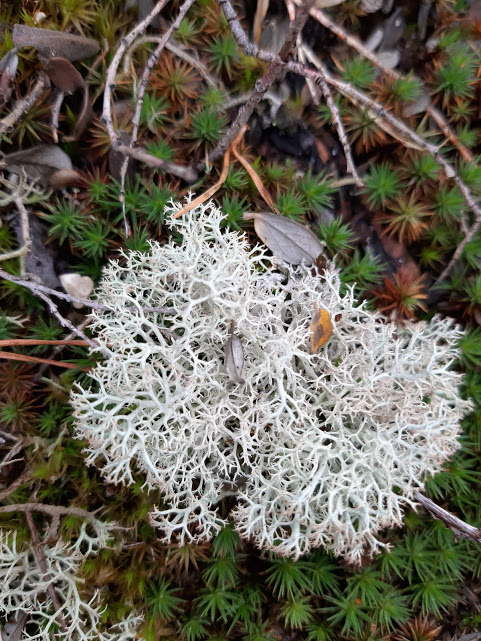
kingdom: Fungi
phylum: Ascomycota
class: Lecanoromycetes
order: Lecanorales
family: Cladoniaceae
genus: Cladonia
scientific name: Cladonia portentosa
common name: hede-rensdyrlav
